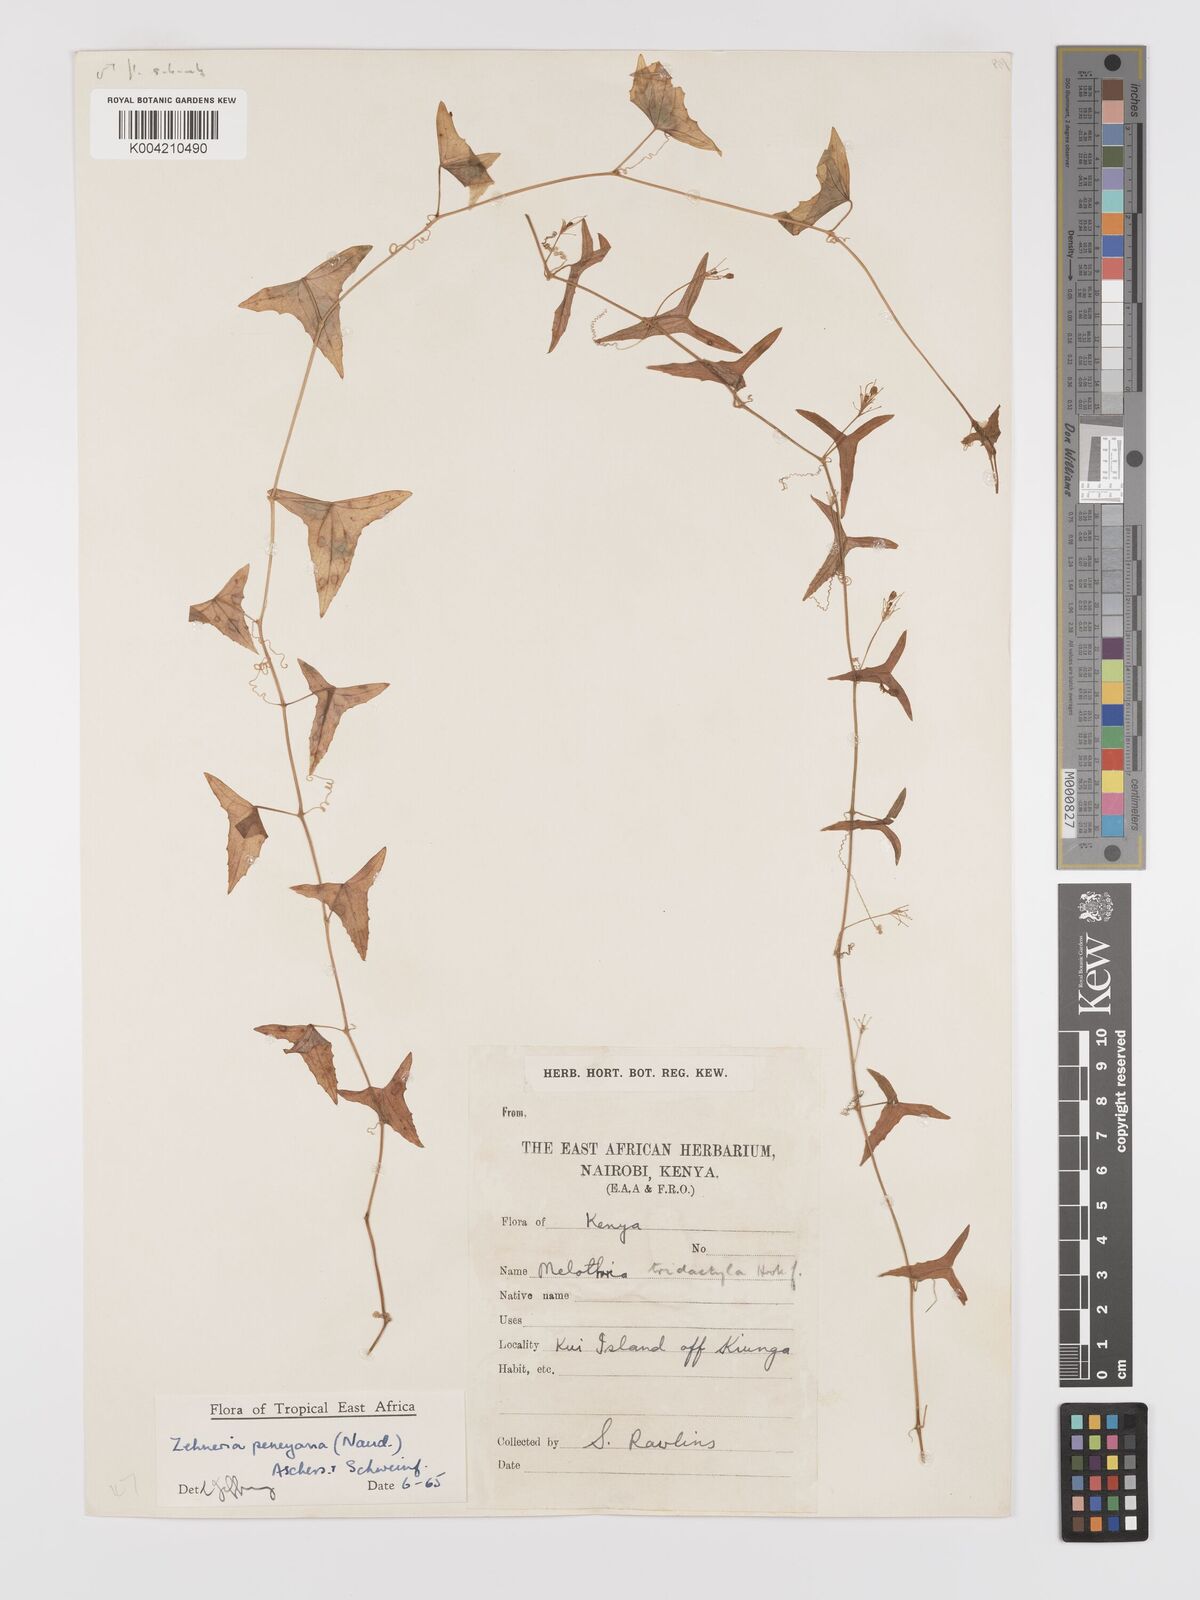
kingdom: Plantae
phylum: Tracheophyta
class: Magnoliopsida
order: Cucurbitales
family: Cucurbitaceae
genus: Zehneria
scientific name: Zehneria peneyana
